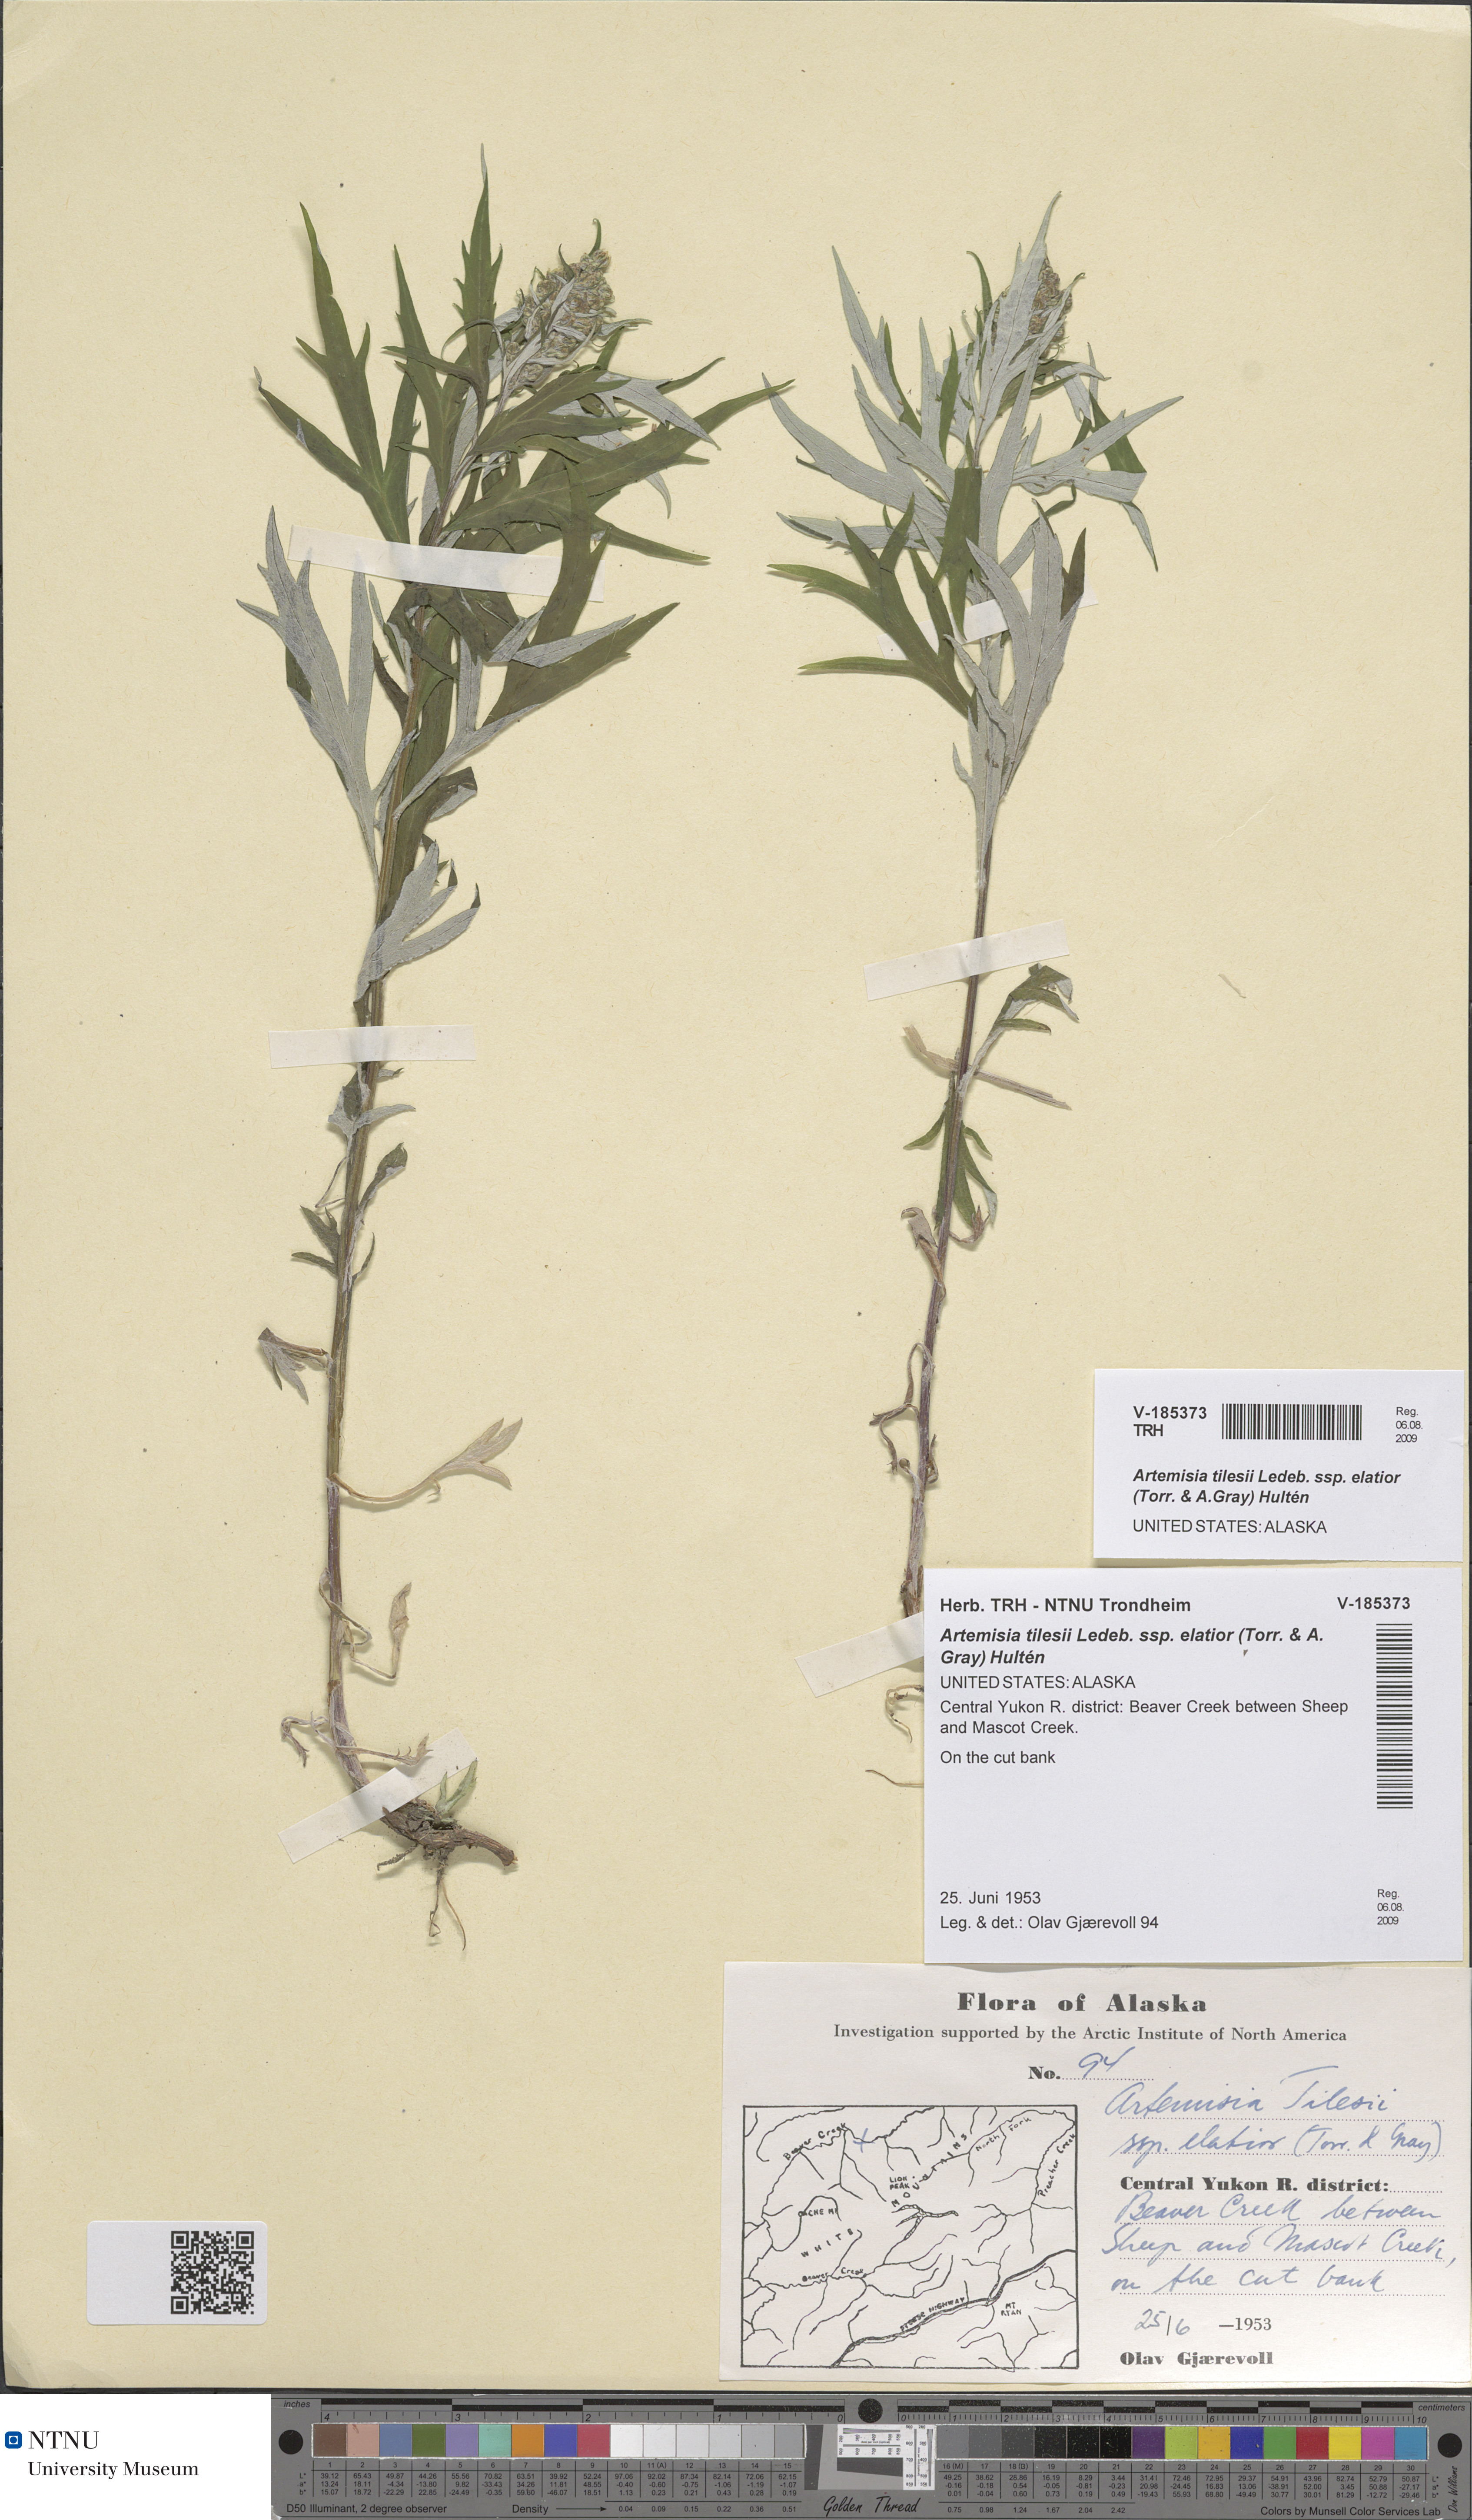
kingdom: Plantae
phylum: Tracheophyta
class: Magnoliopsida
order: Asterales
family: Asteraceae
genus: Artemisia
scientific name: Artemisia tilesii
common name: Aleutian mugwort
